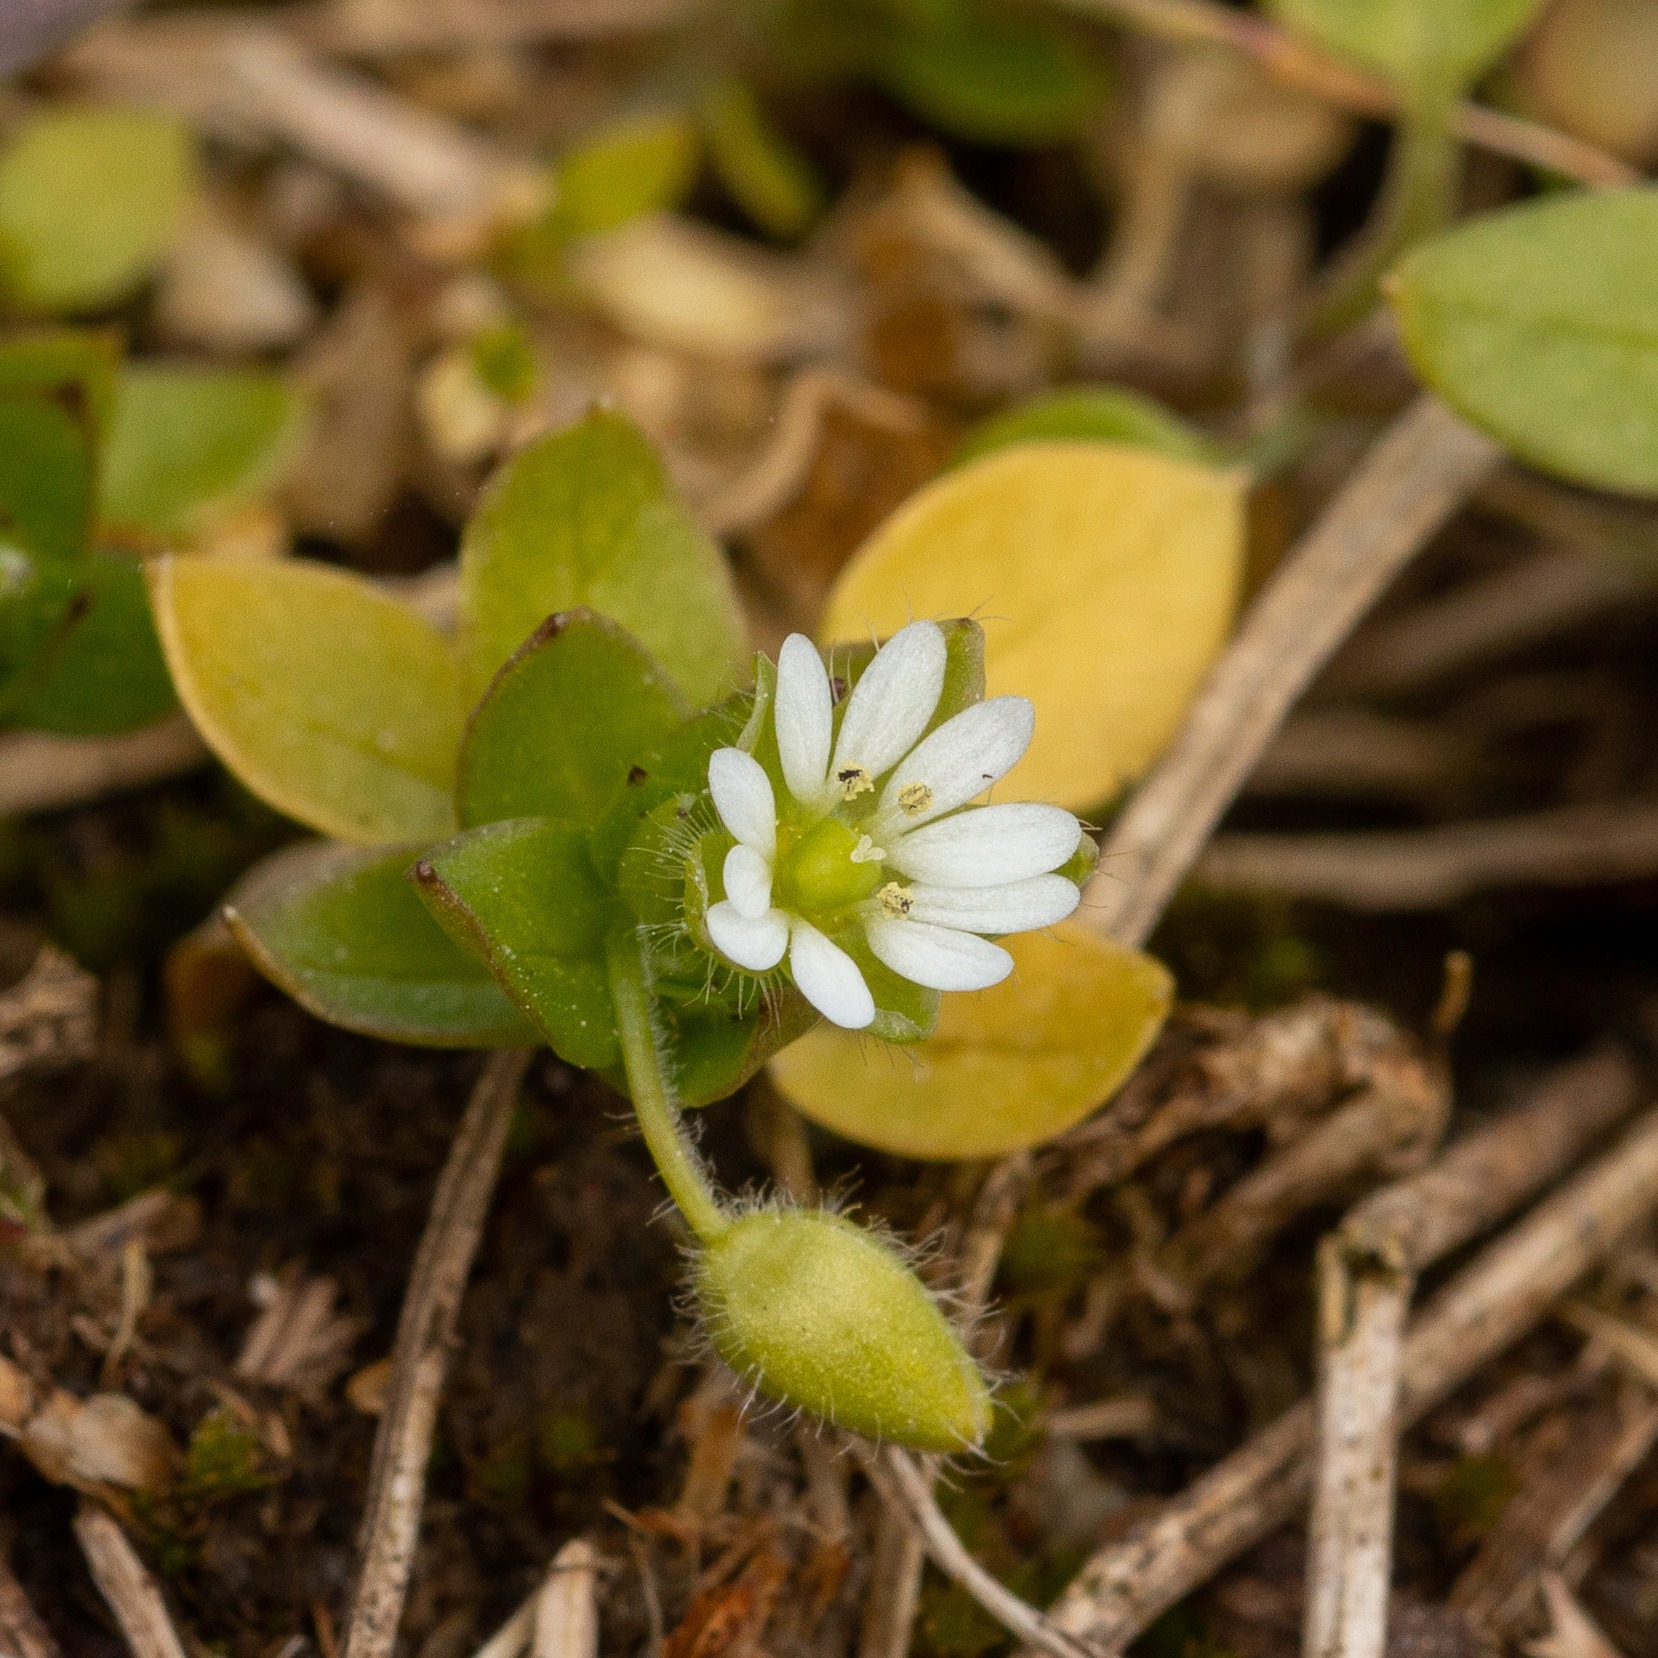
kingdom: Plantae
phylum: Tracheophyta
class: Magnoliopsida
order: Caryophyllales
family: Caryophyllaceae
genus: Stellaria
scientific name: Stellaria media
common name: Almindelig fuglegræs
